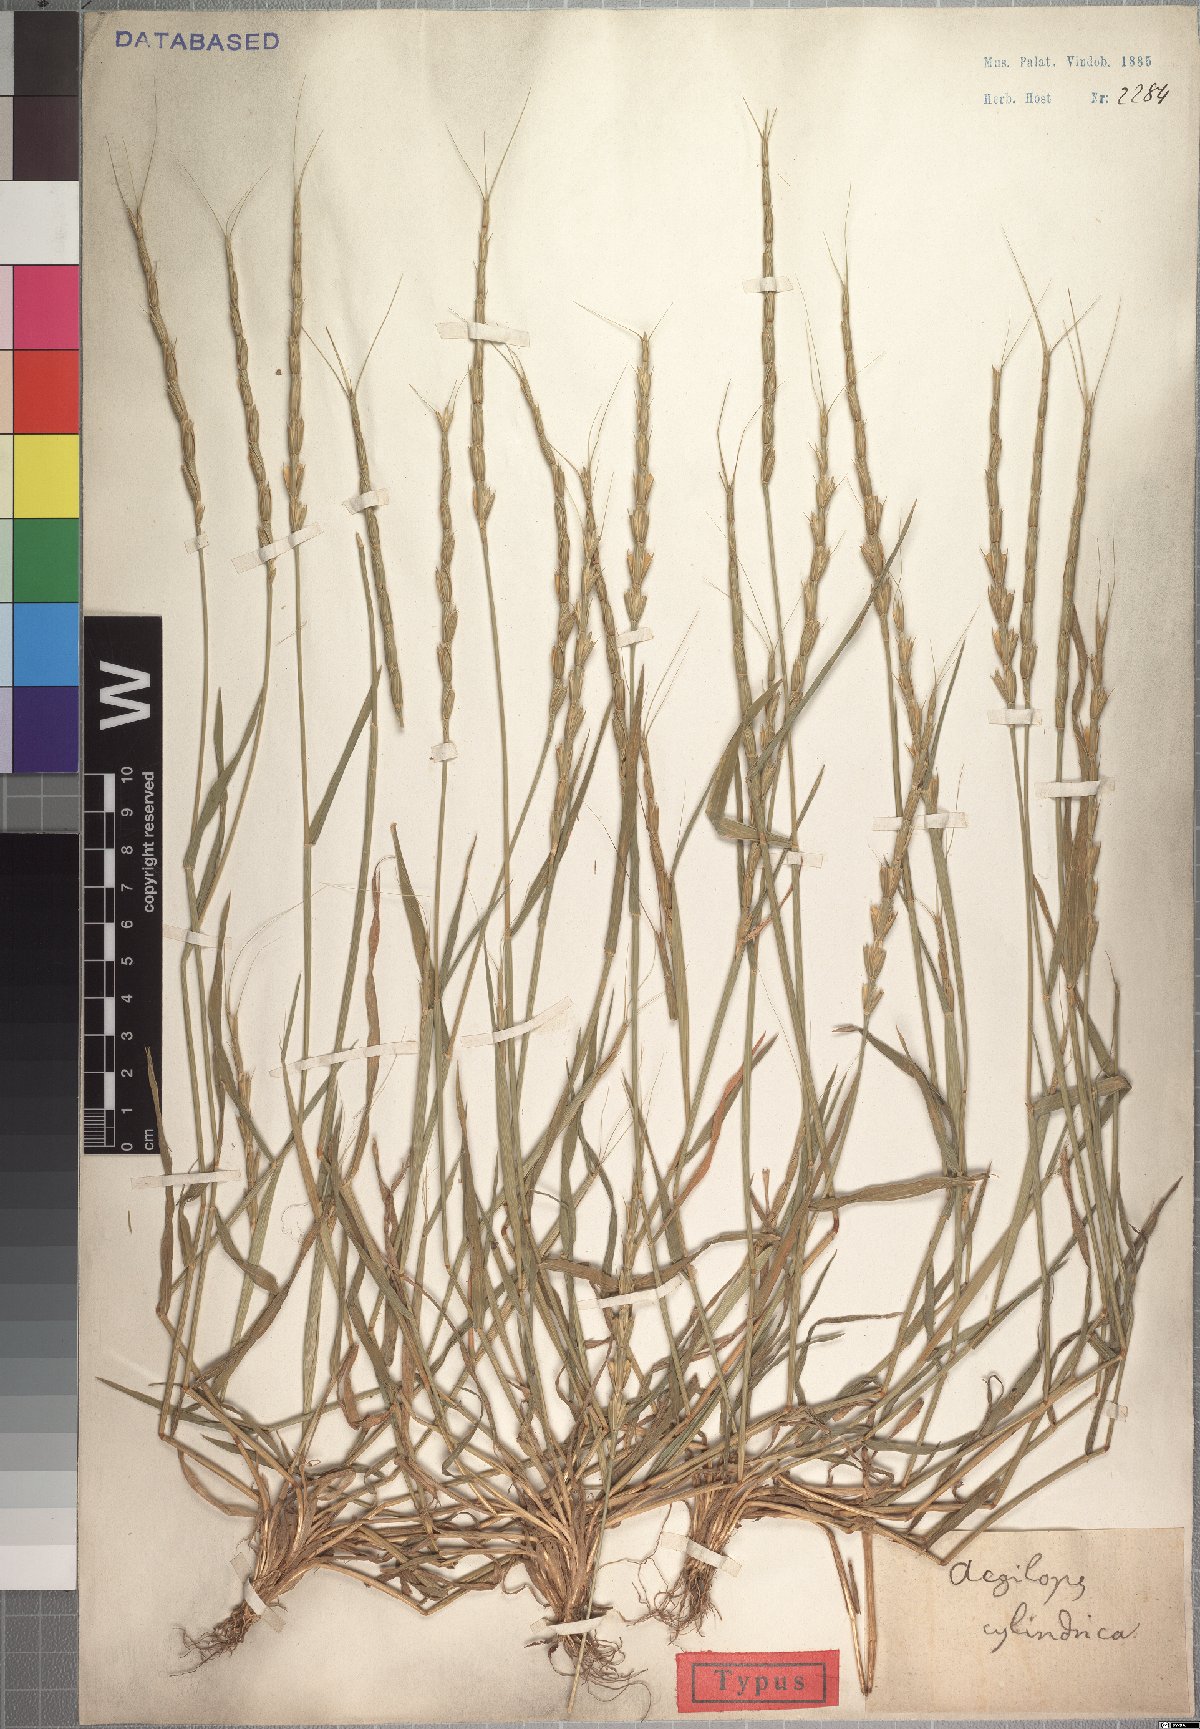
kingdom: Plantae
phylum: Tracheophyta
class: Liliopsida
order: Poales
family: Poaceae
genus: Aegilops
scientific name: Aegilops cylindrica
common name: Jointed goatgrass
